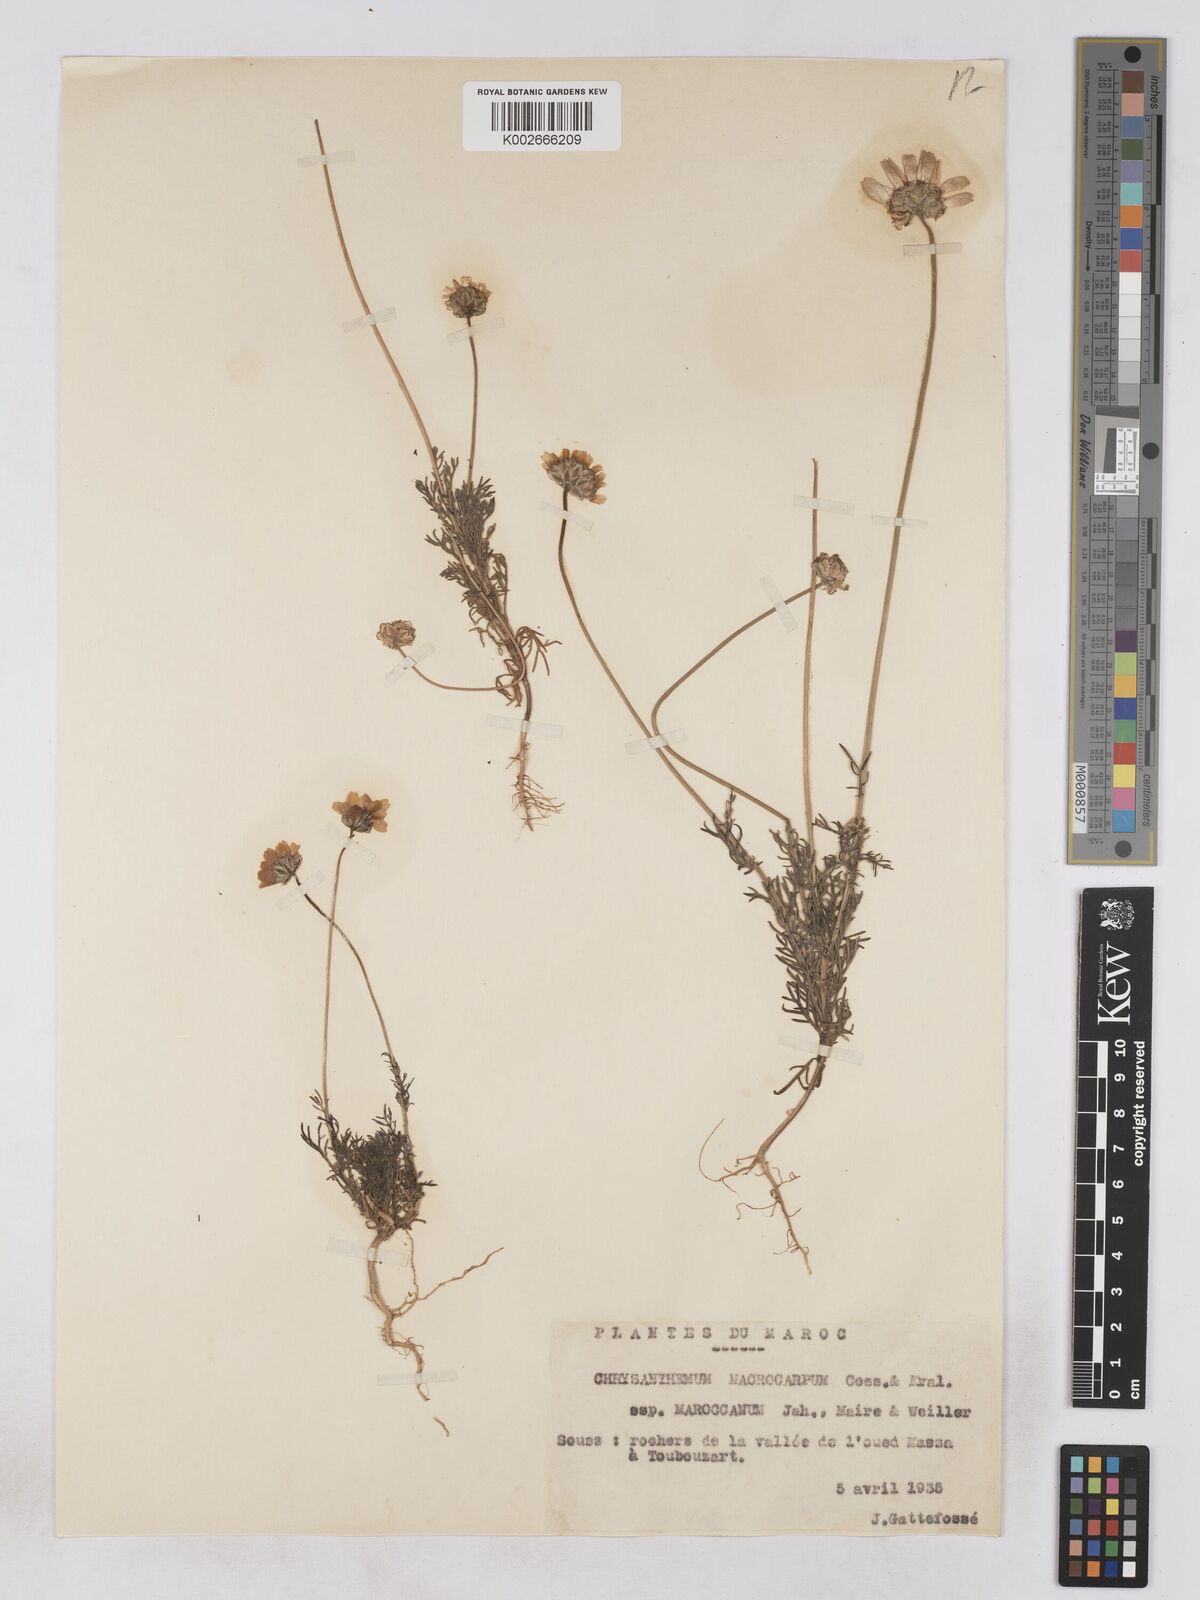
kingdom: Plantae
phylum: Tracheophyta
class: Magnoliopsida
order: Asterales
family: Asteraceae
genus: Endopappus
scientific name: Endopappus macrocarpus
